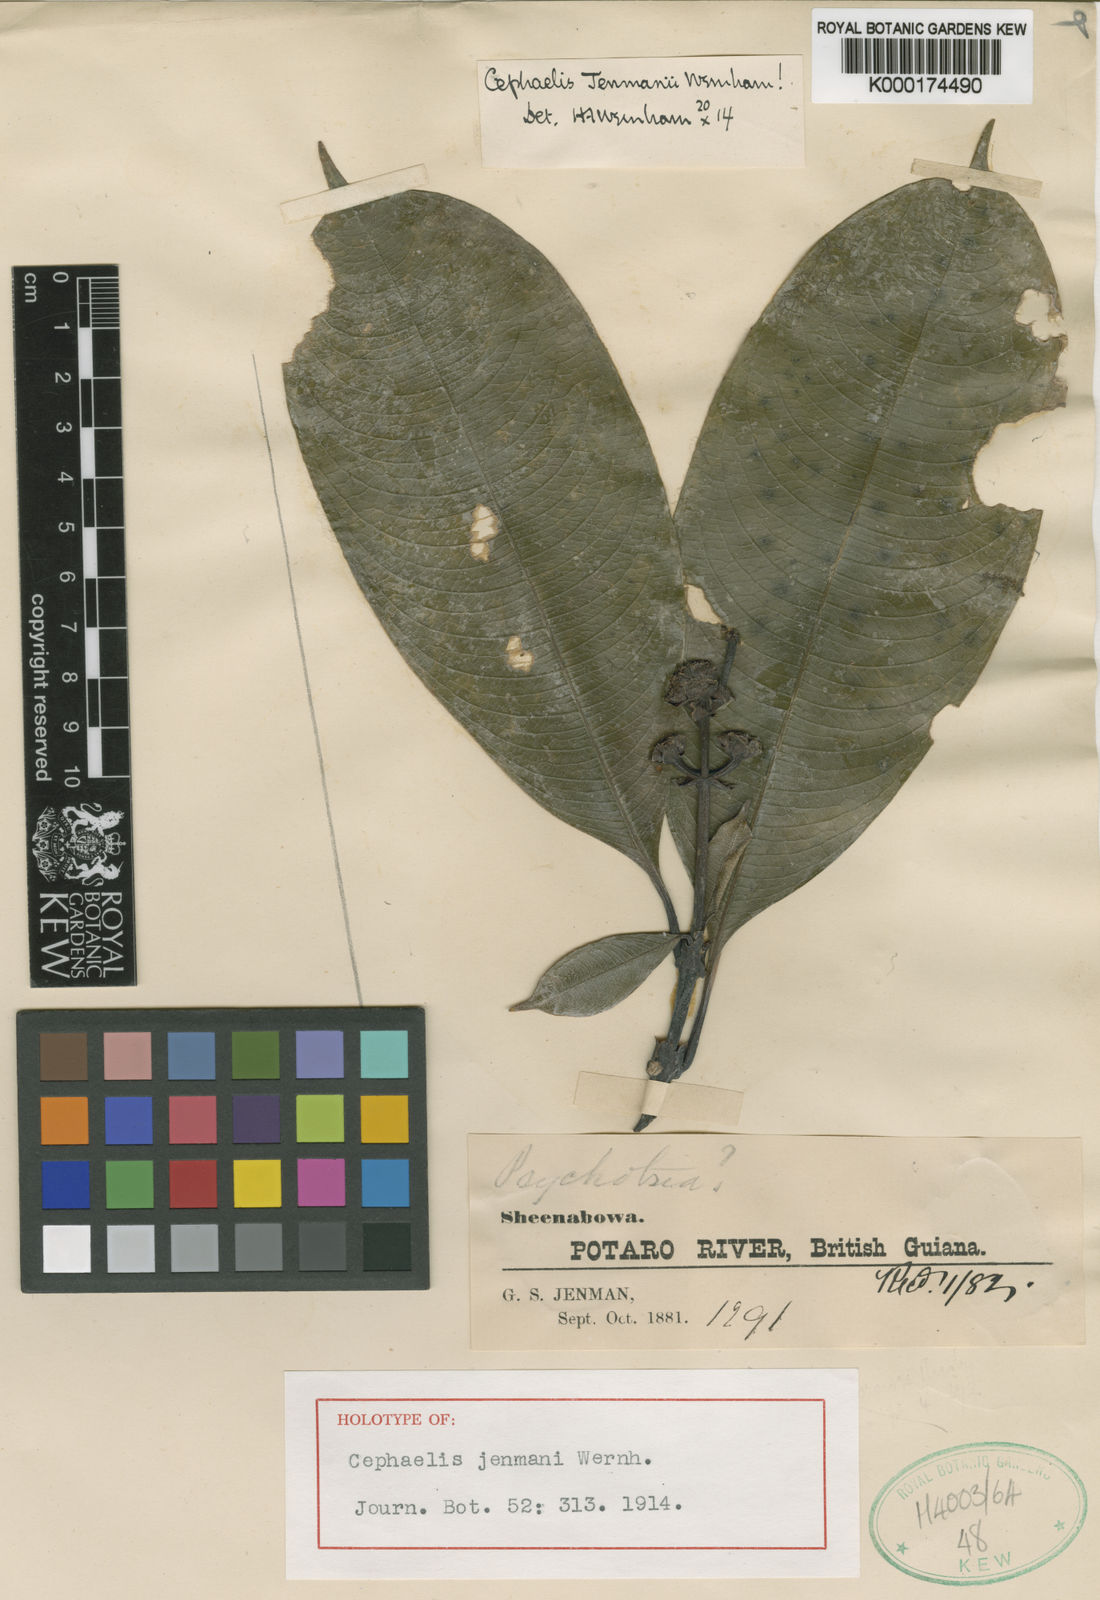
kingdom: Plantae
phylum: Tracheophyta
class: Magnoliopsida
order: Gentianales
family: Rubiaceae
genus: Palicourea
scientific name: Palicourea jenmanii
